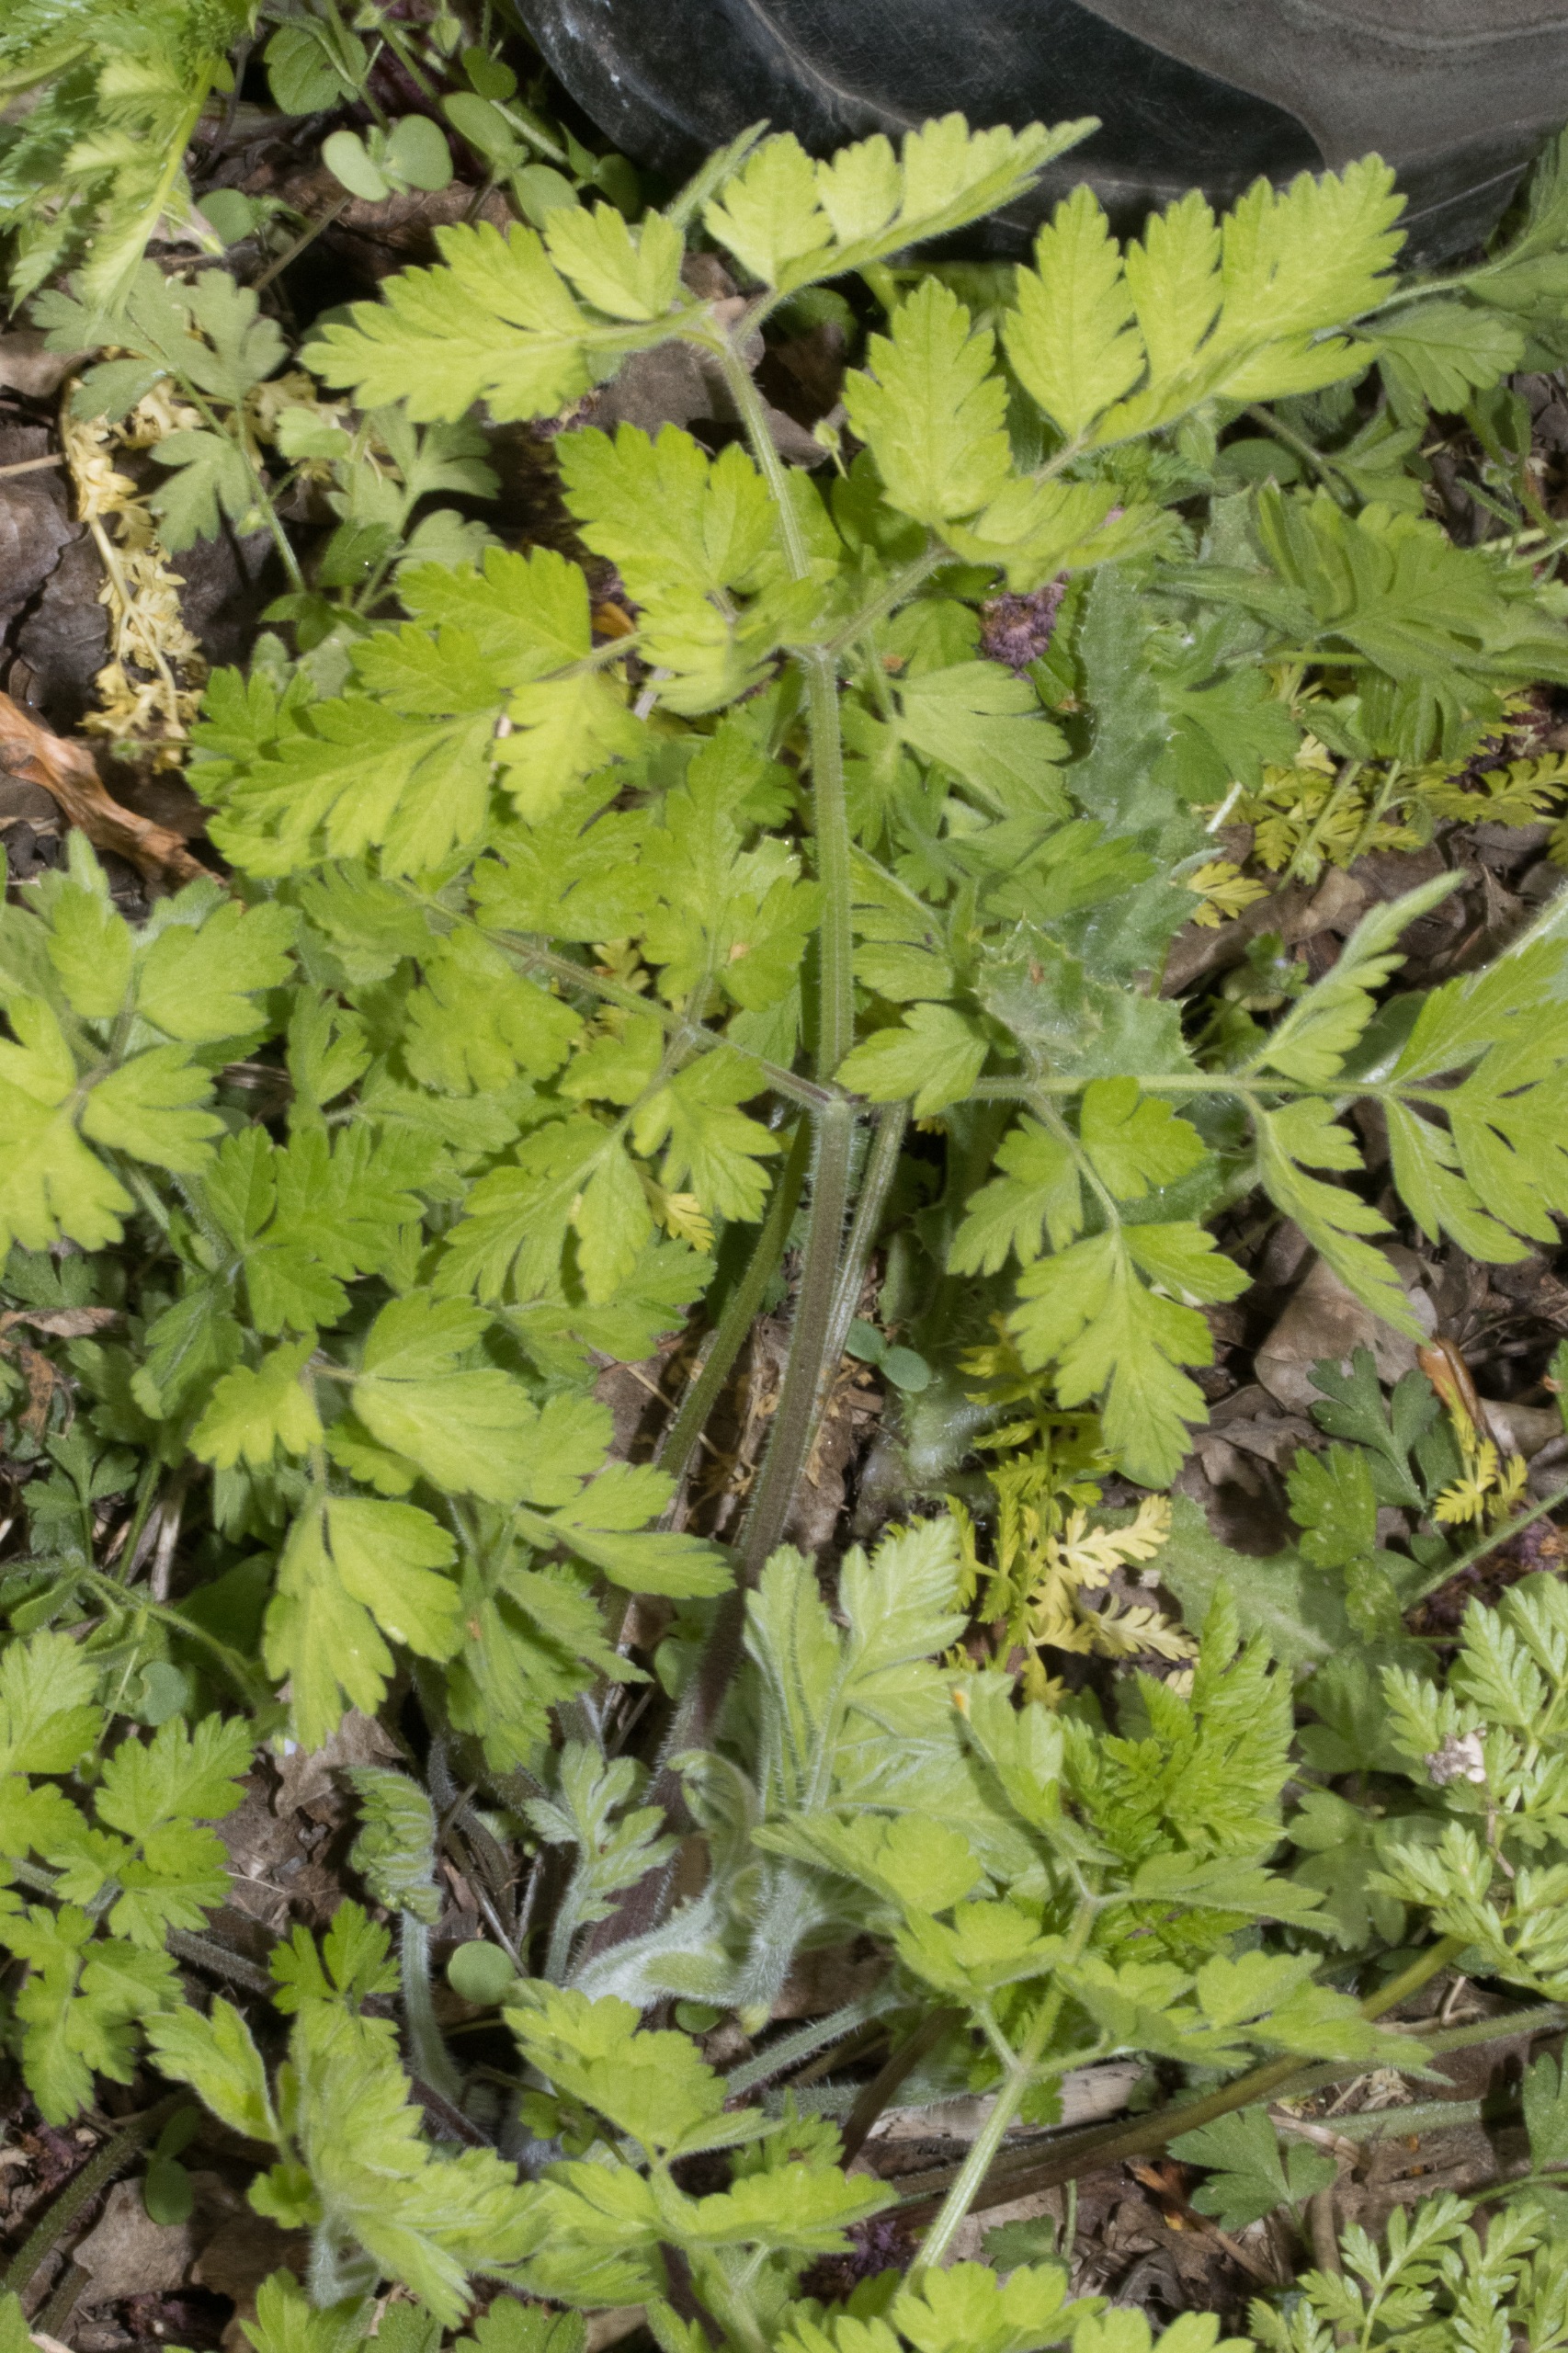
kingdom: Plantae
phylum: Tracheophyta
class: Magnoliopsida
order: Apiales
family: Apiaceae
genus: Chaerophyllum
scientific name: Chaerophyllum temulum
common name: Almindelig hulsvøb
